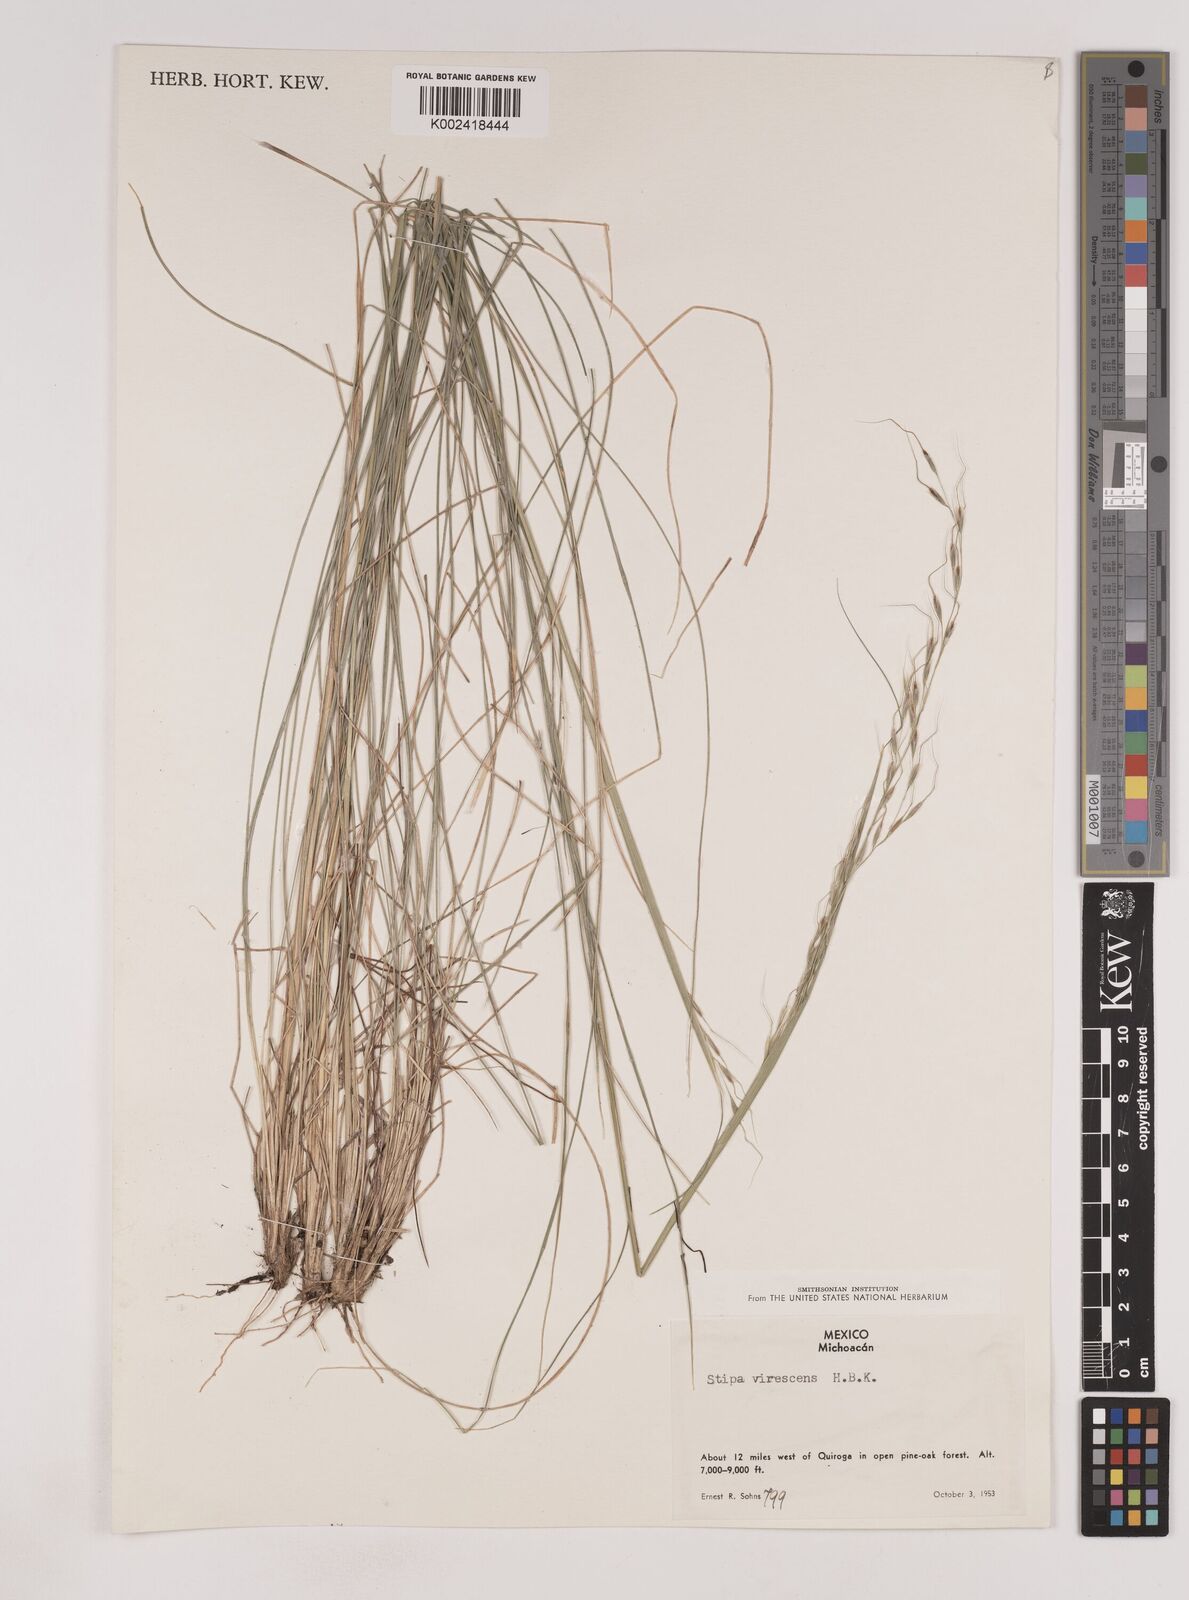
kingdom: Plantae
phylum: Tracheophyta
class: Liliopsida
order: Poales
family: Poaceae
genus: Piptochaetium
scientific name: Piptochaetium virescens
